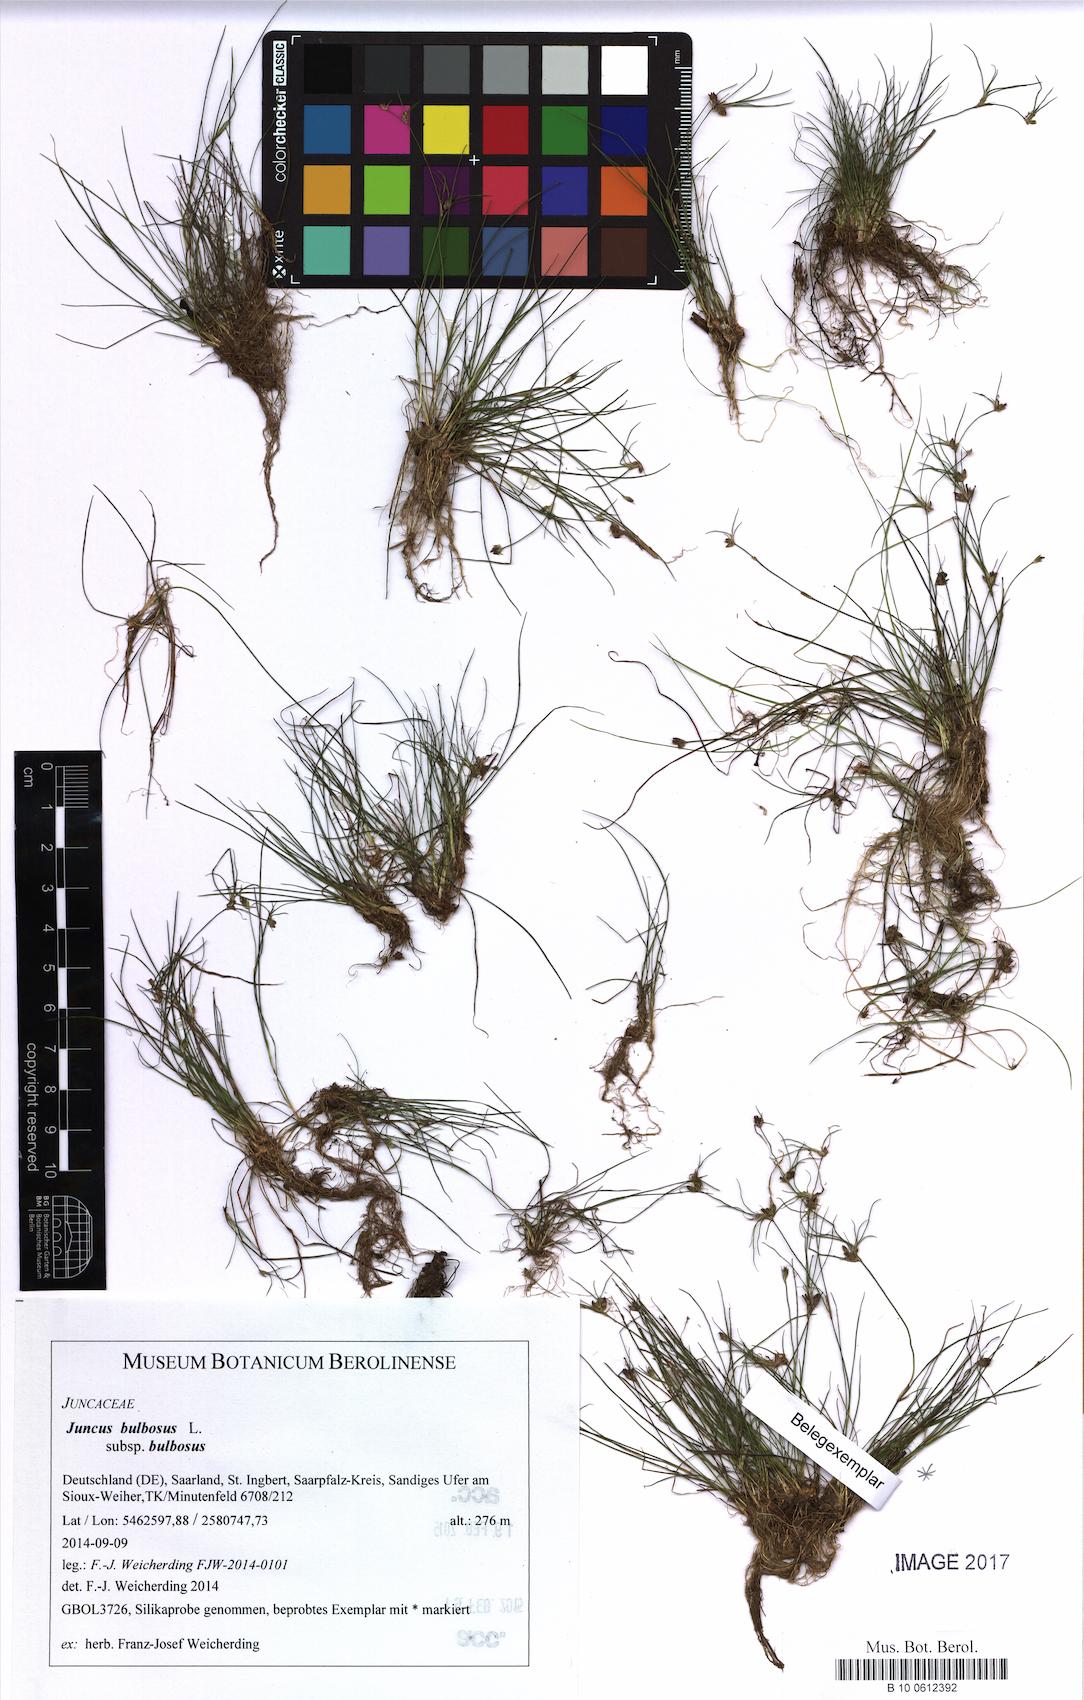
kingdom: Plantae
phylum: Tracheophyta
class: Liliopsida
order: Poales
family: Juncaceae
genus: Juncus
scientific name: Juncus bulbosus
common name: Bulbous rush
